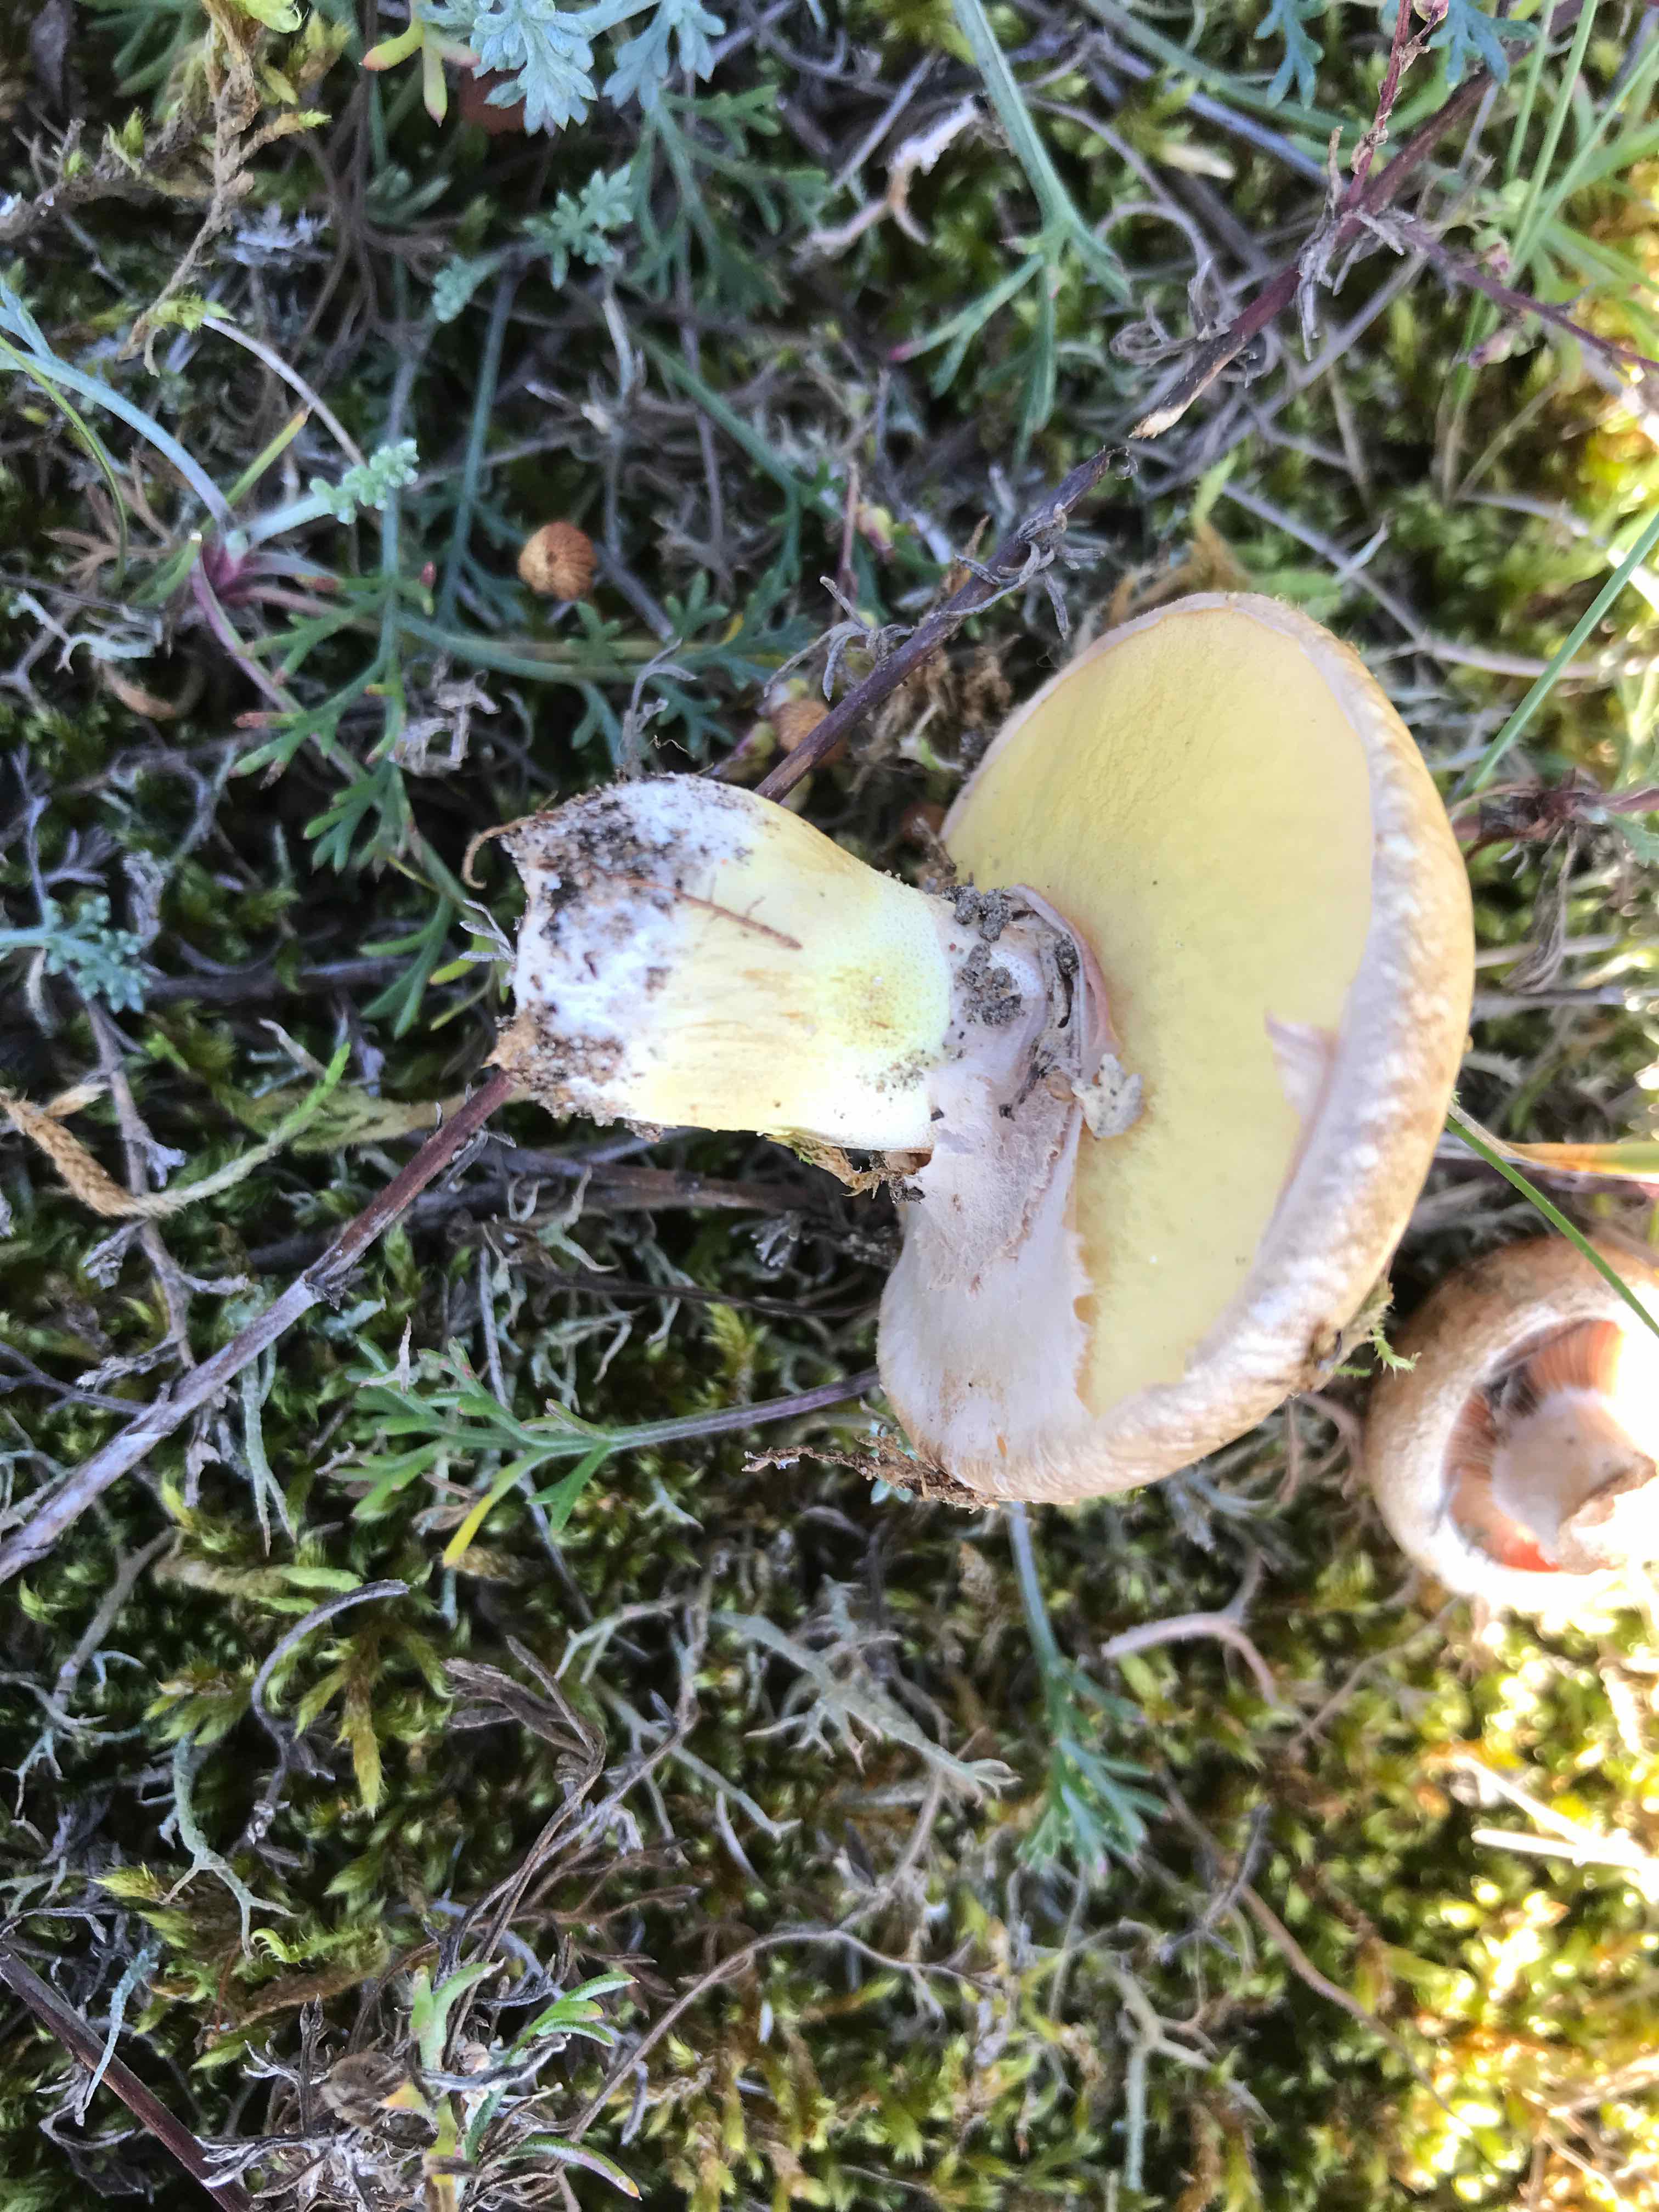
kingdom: Fungi
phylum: Basidiomycota
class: Agaricomycetes
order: Boletales
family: Suillaceae
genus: Suillus
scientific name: Suillus luteus
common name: brungul slimrørhat
